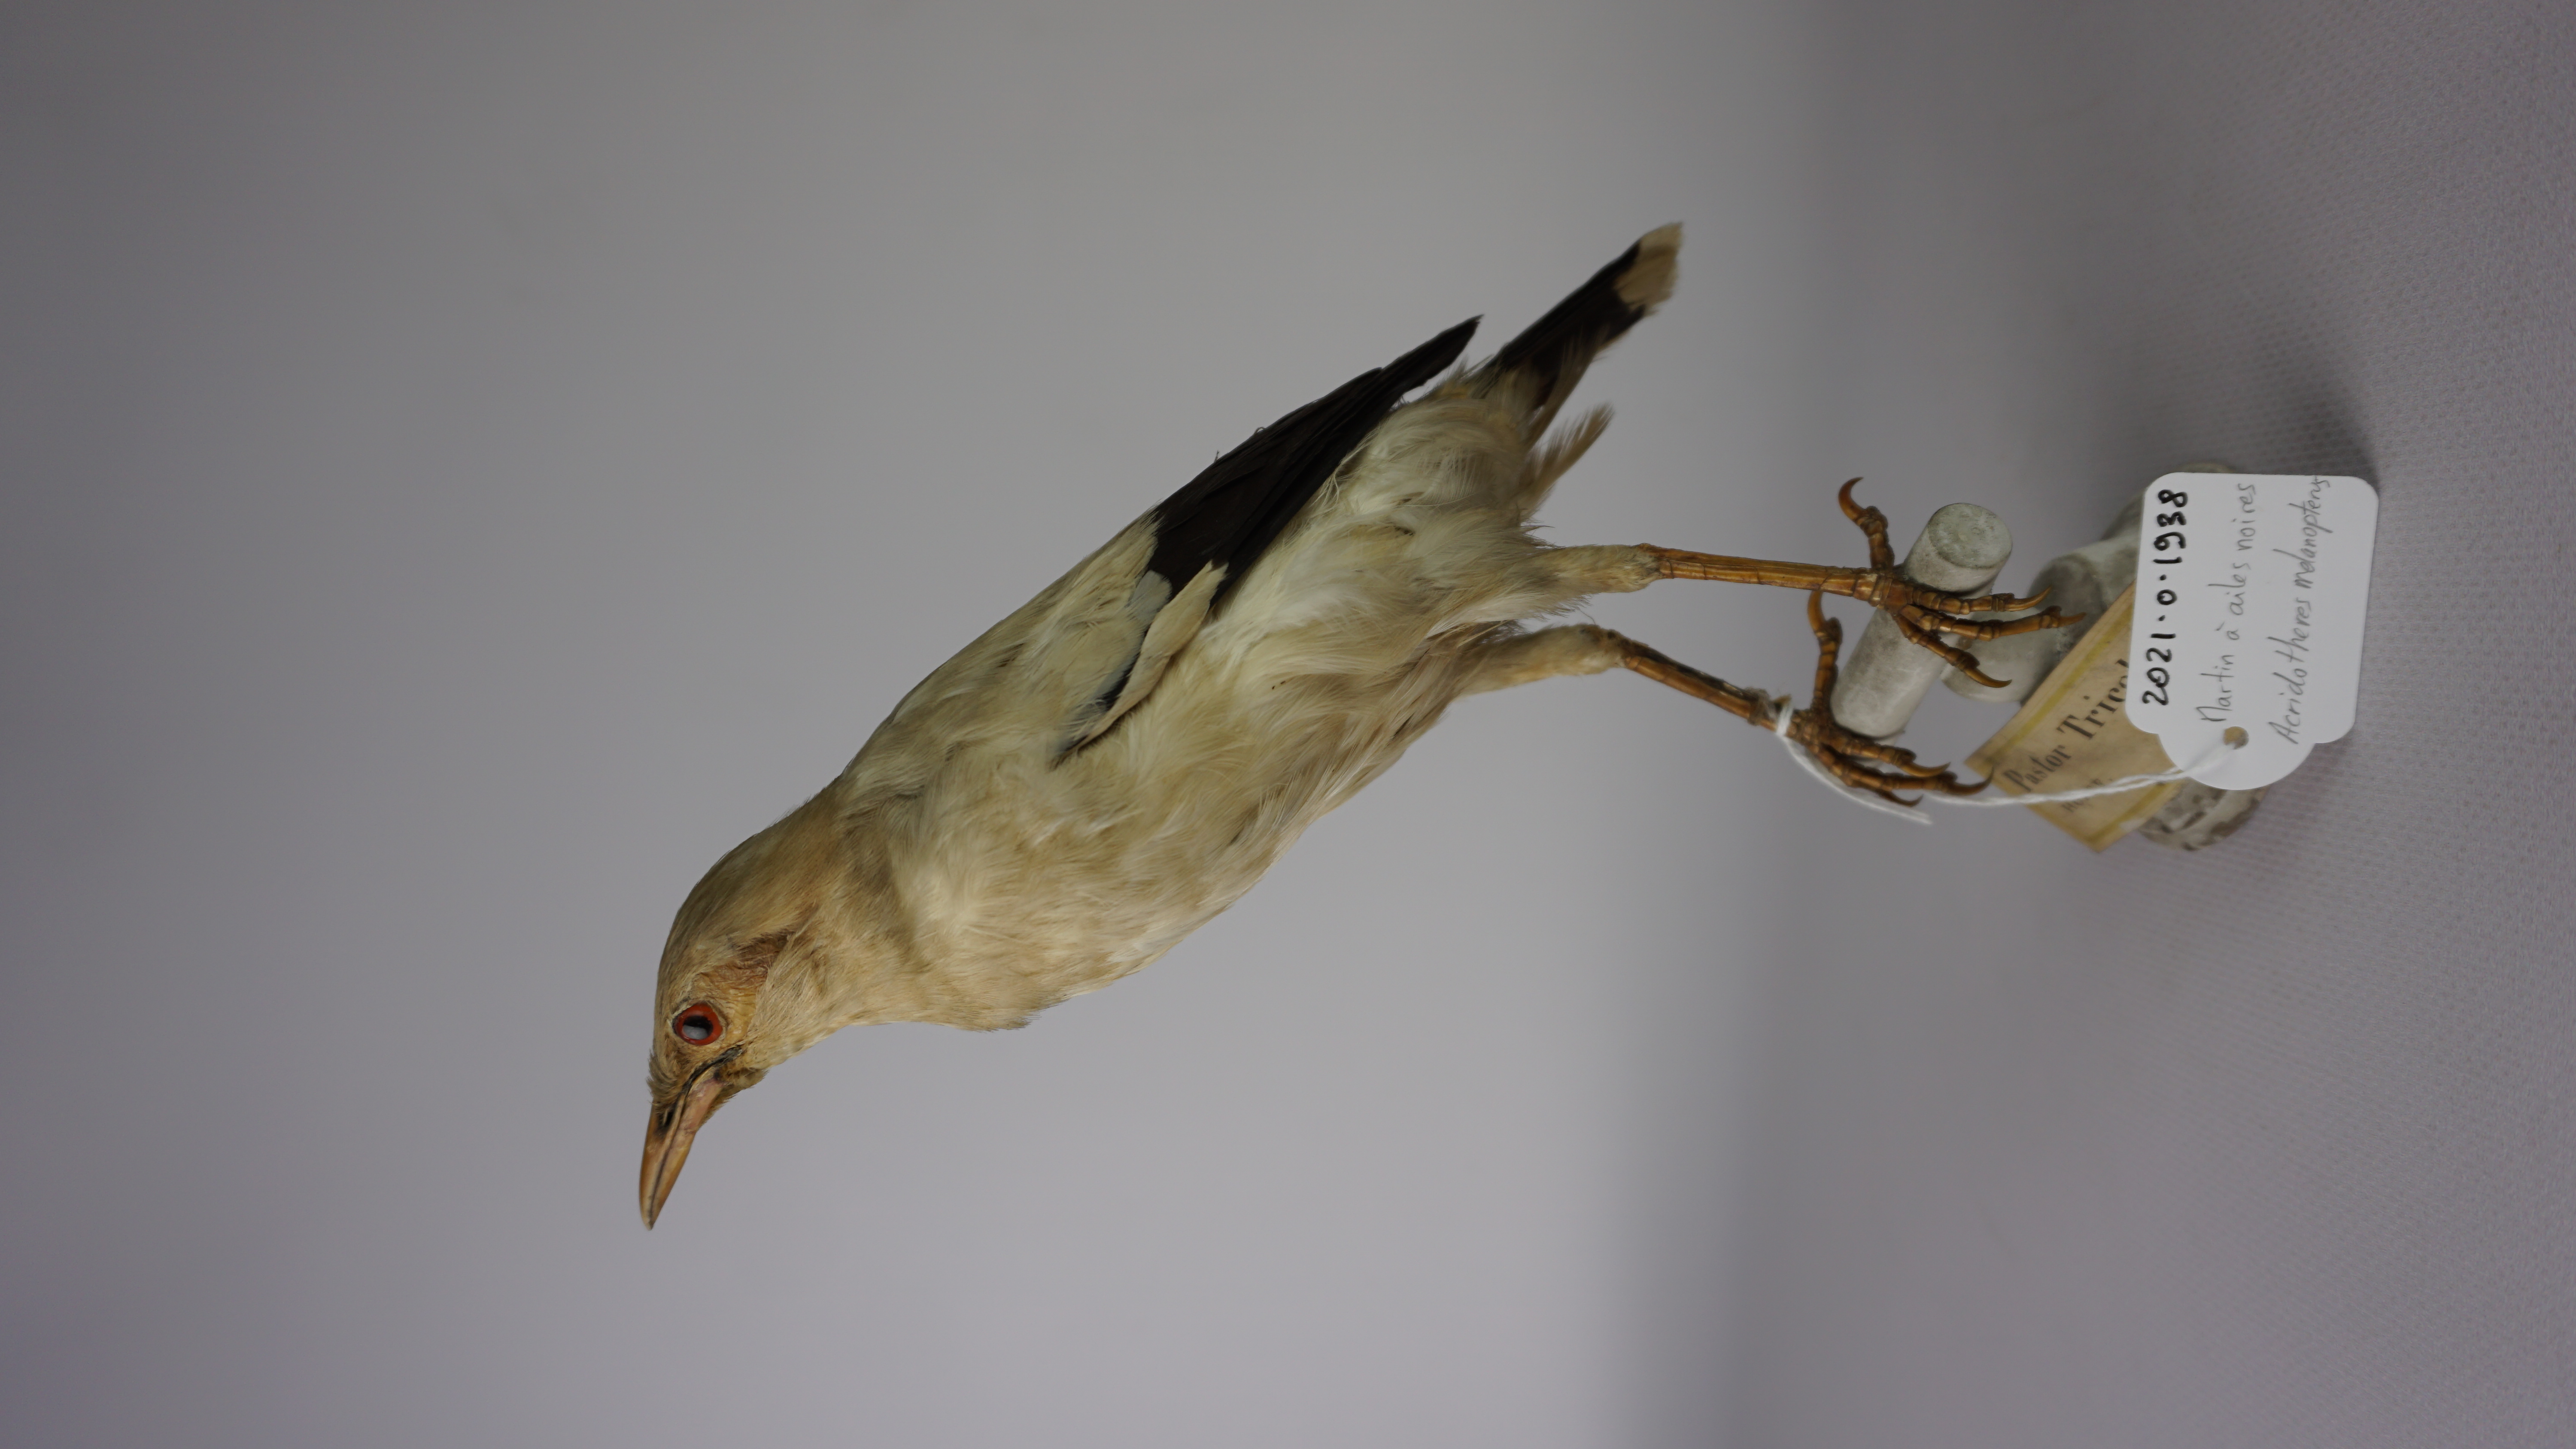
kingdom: Animalia
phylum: Chordata
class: Aves
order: Passeriformes
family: Sturnidae
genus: Acridotheres
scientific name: Acridotheres melanopterus
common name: Black-winged starling
